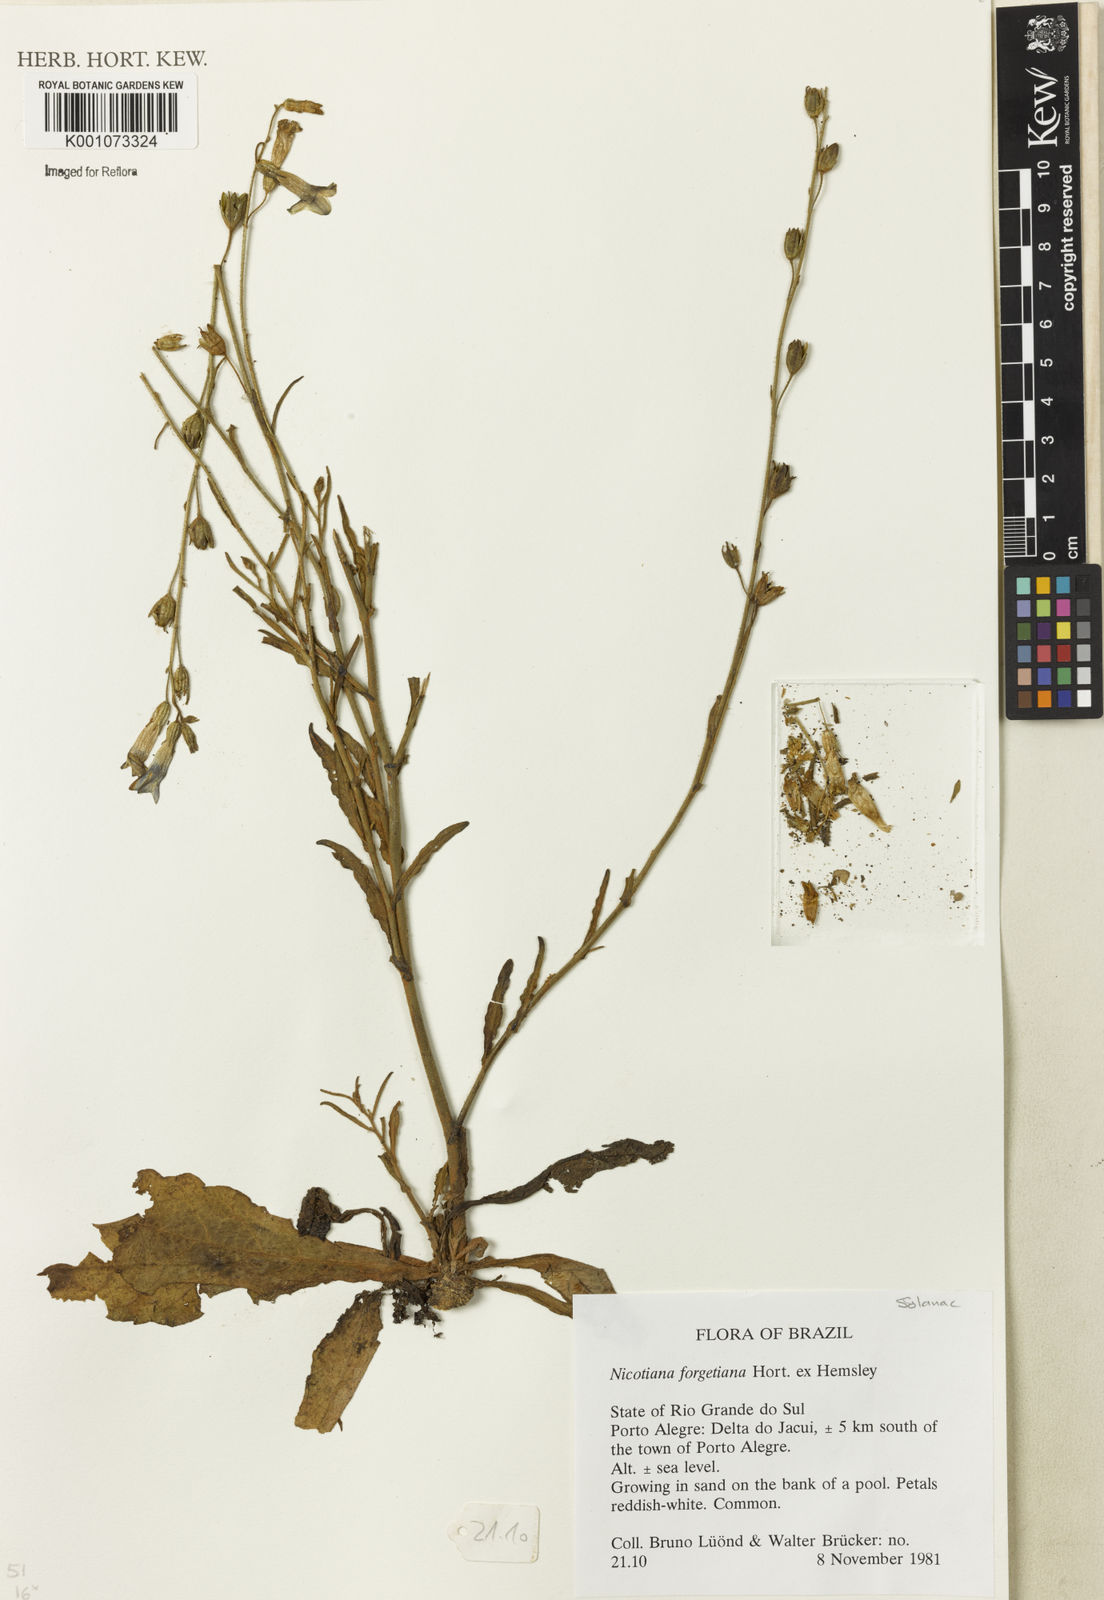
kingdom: Plantae
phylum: Tracheophyta
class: Magnoliopsida
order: Solanales
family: Solanaceae
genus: Nicotiana
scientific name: Nicotiana
